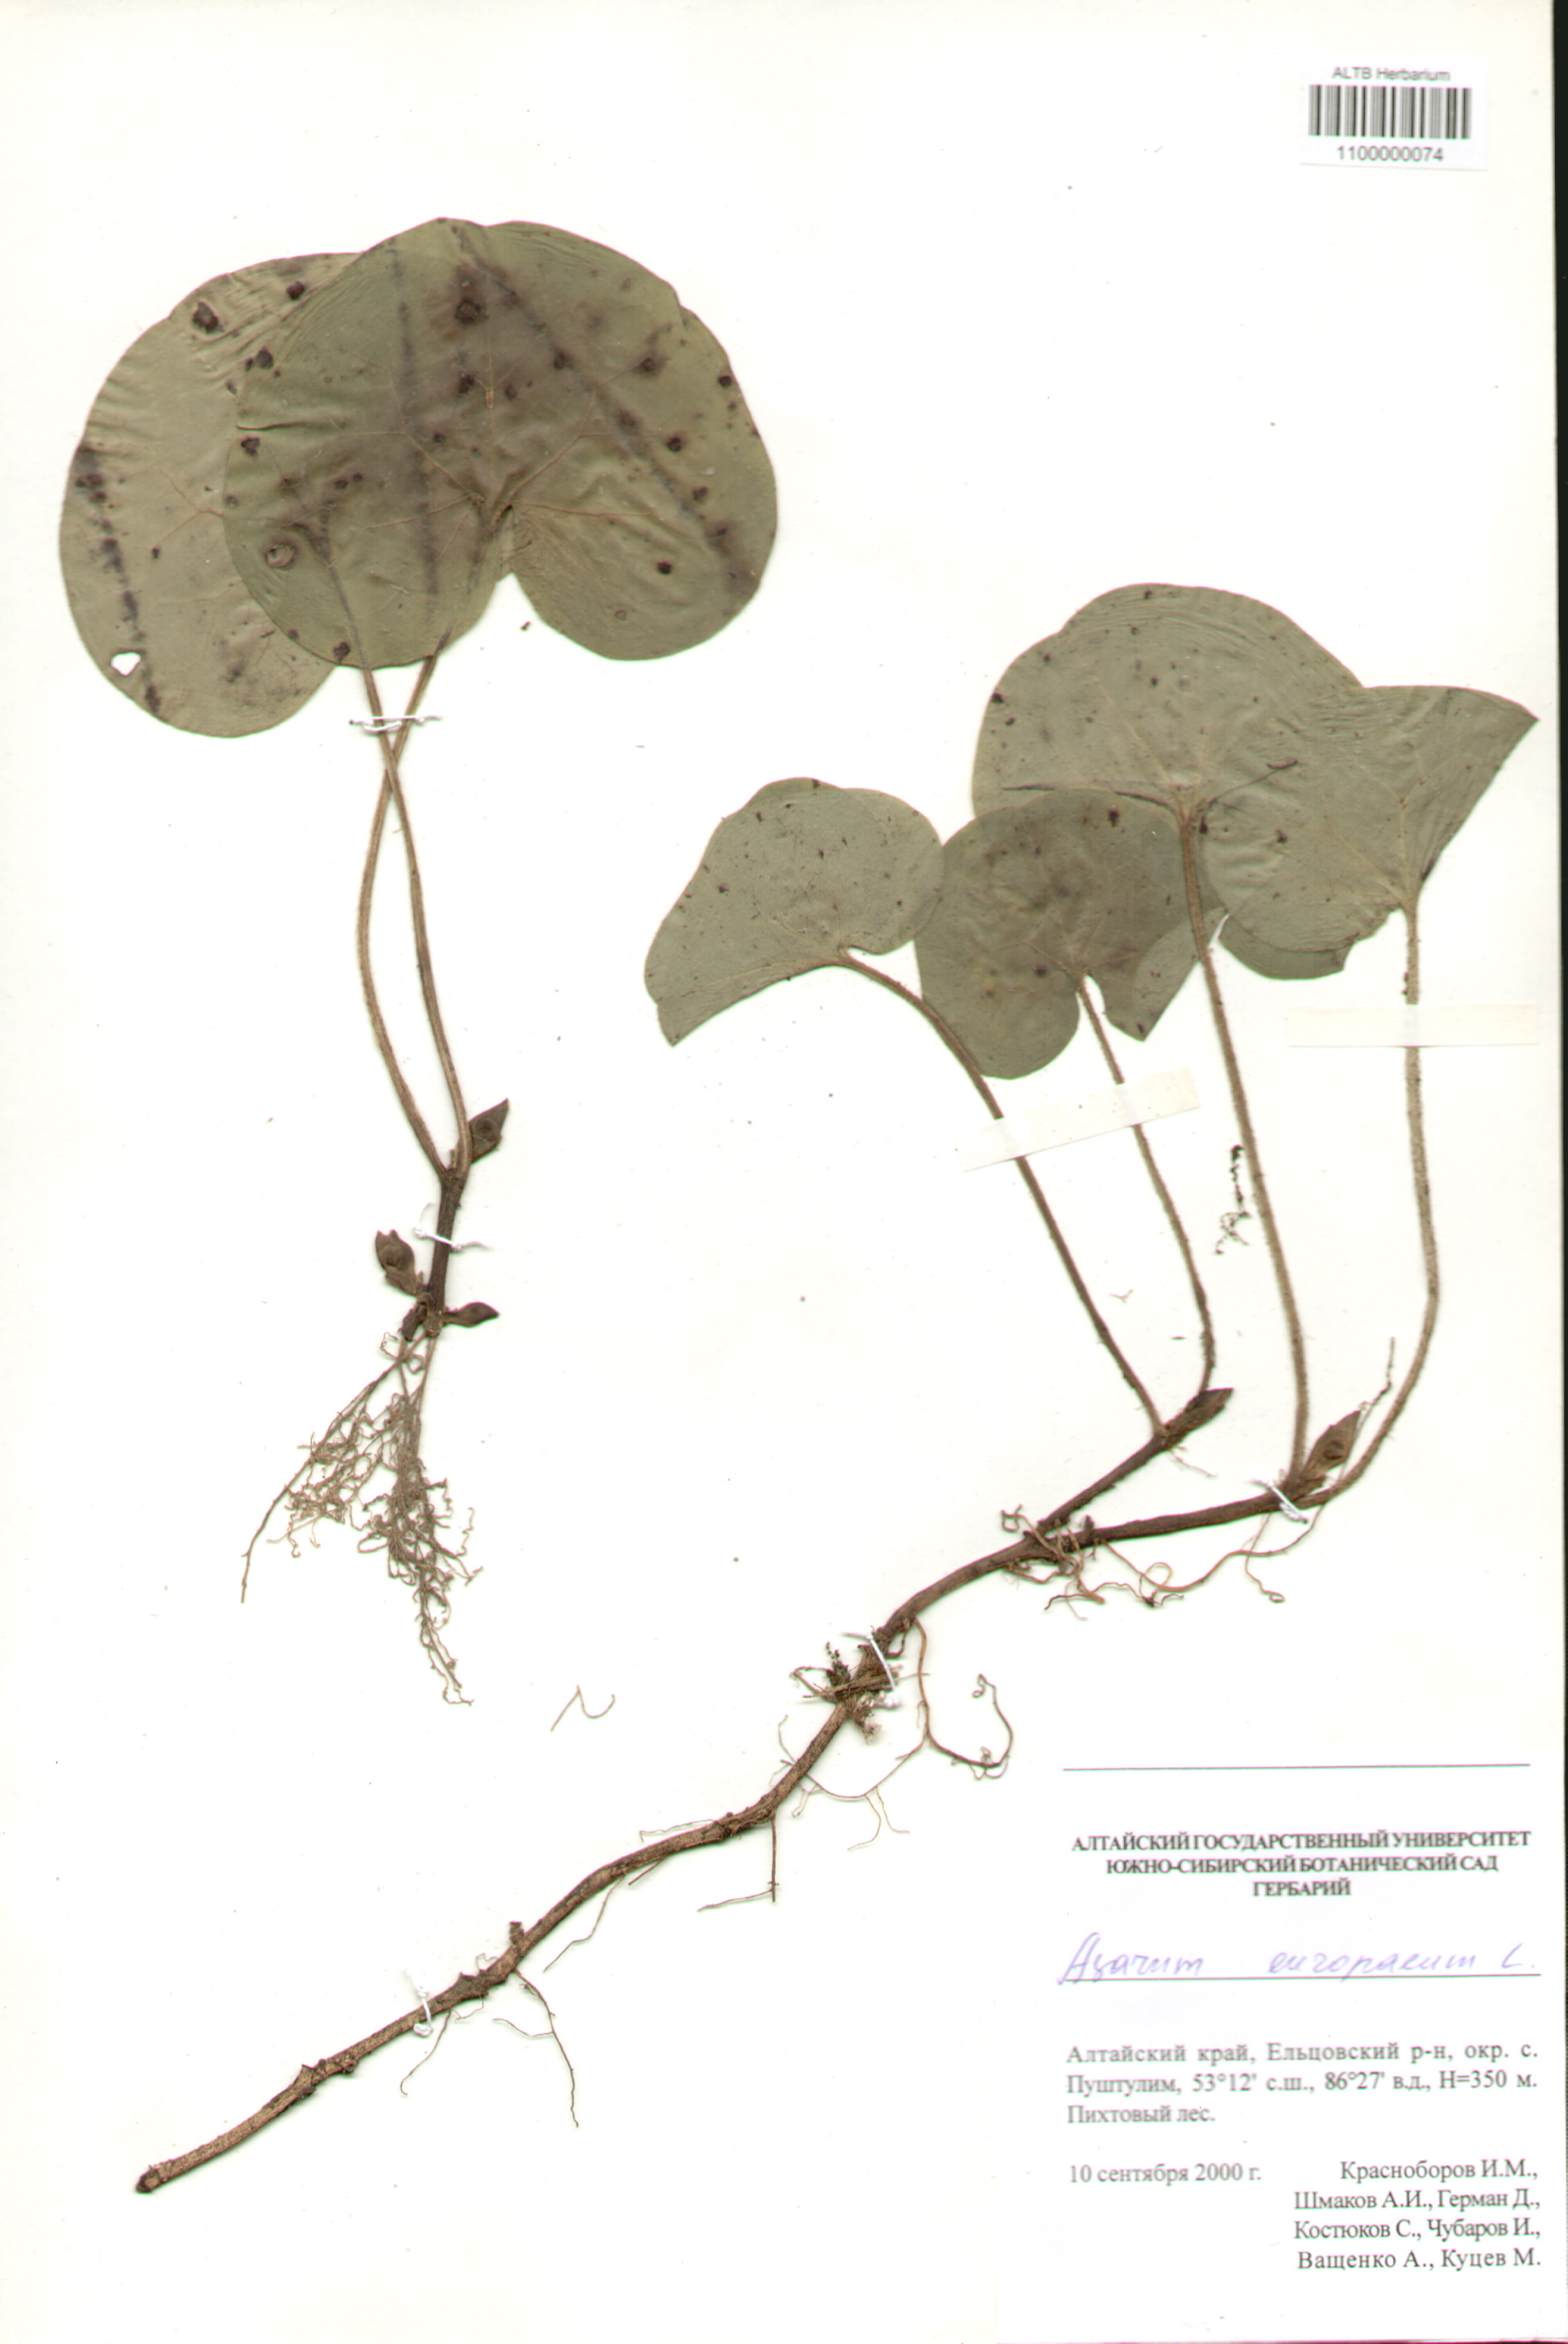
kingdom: Plantae
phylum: Tracheophyta
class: Magnoliopsida
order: Piperales
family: Aristolochiaceae
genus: Asarum
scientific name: Asarum europaeum
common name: Asarabacca
